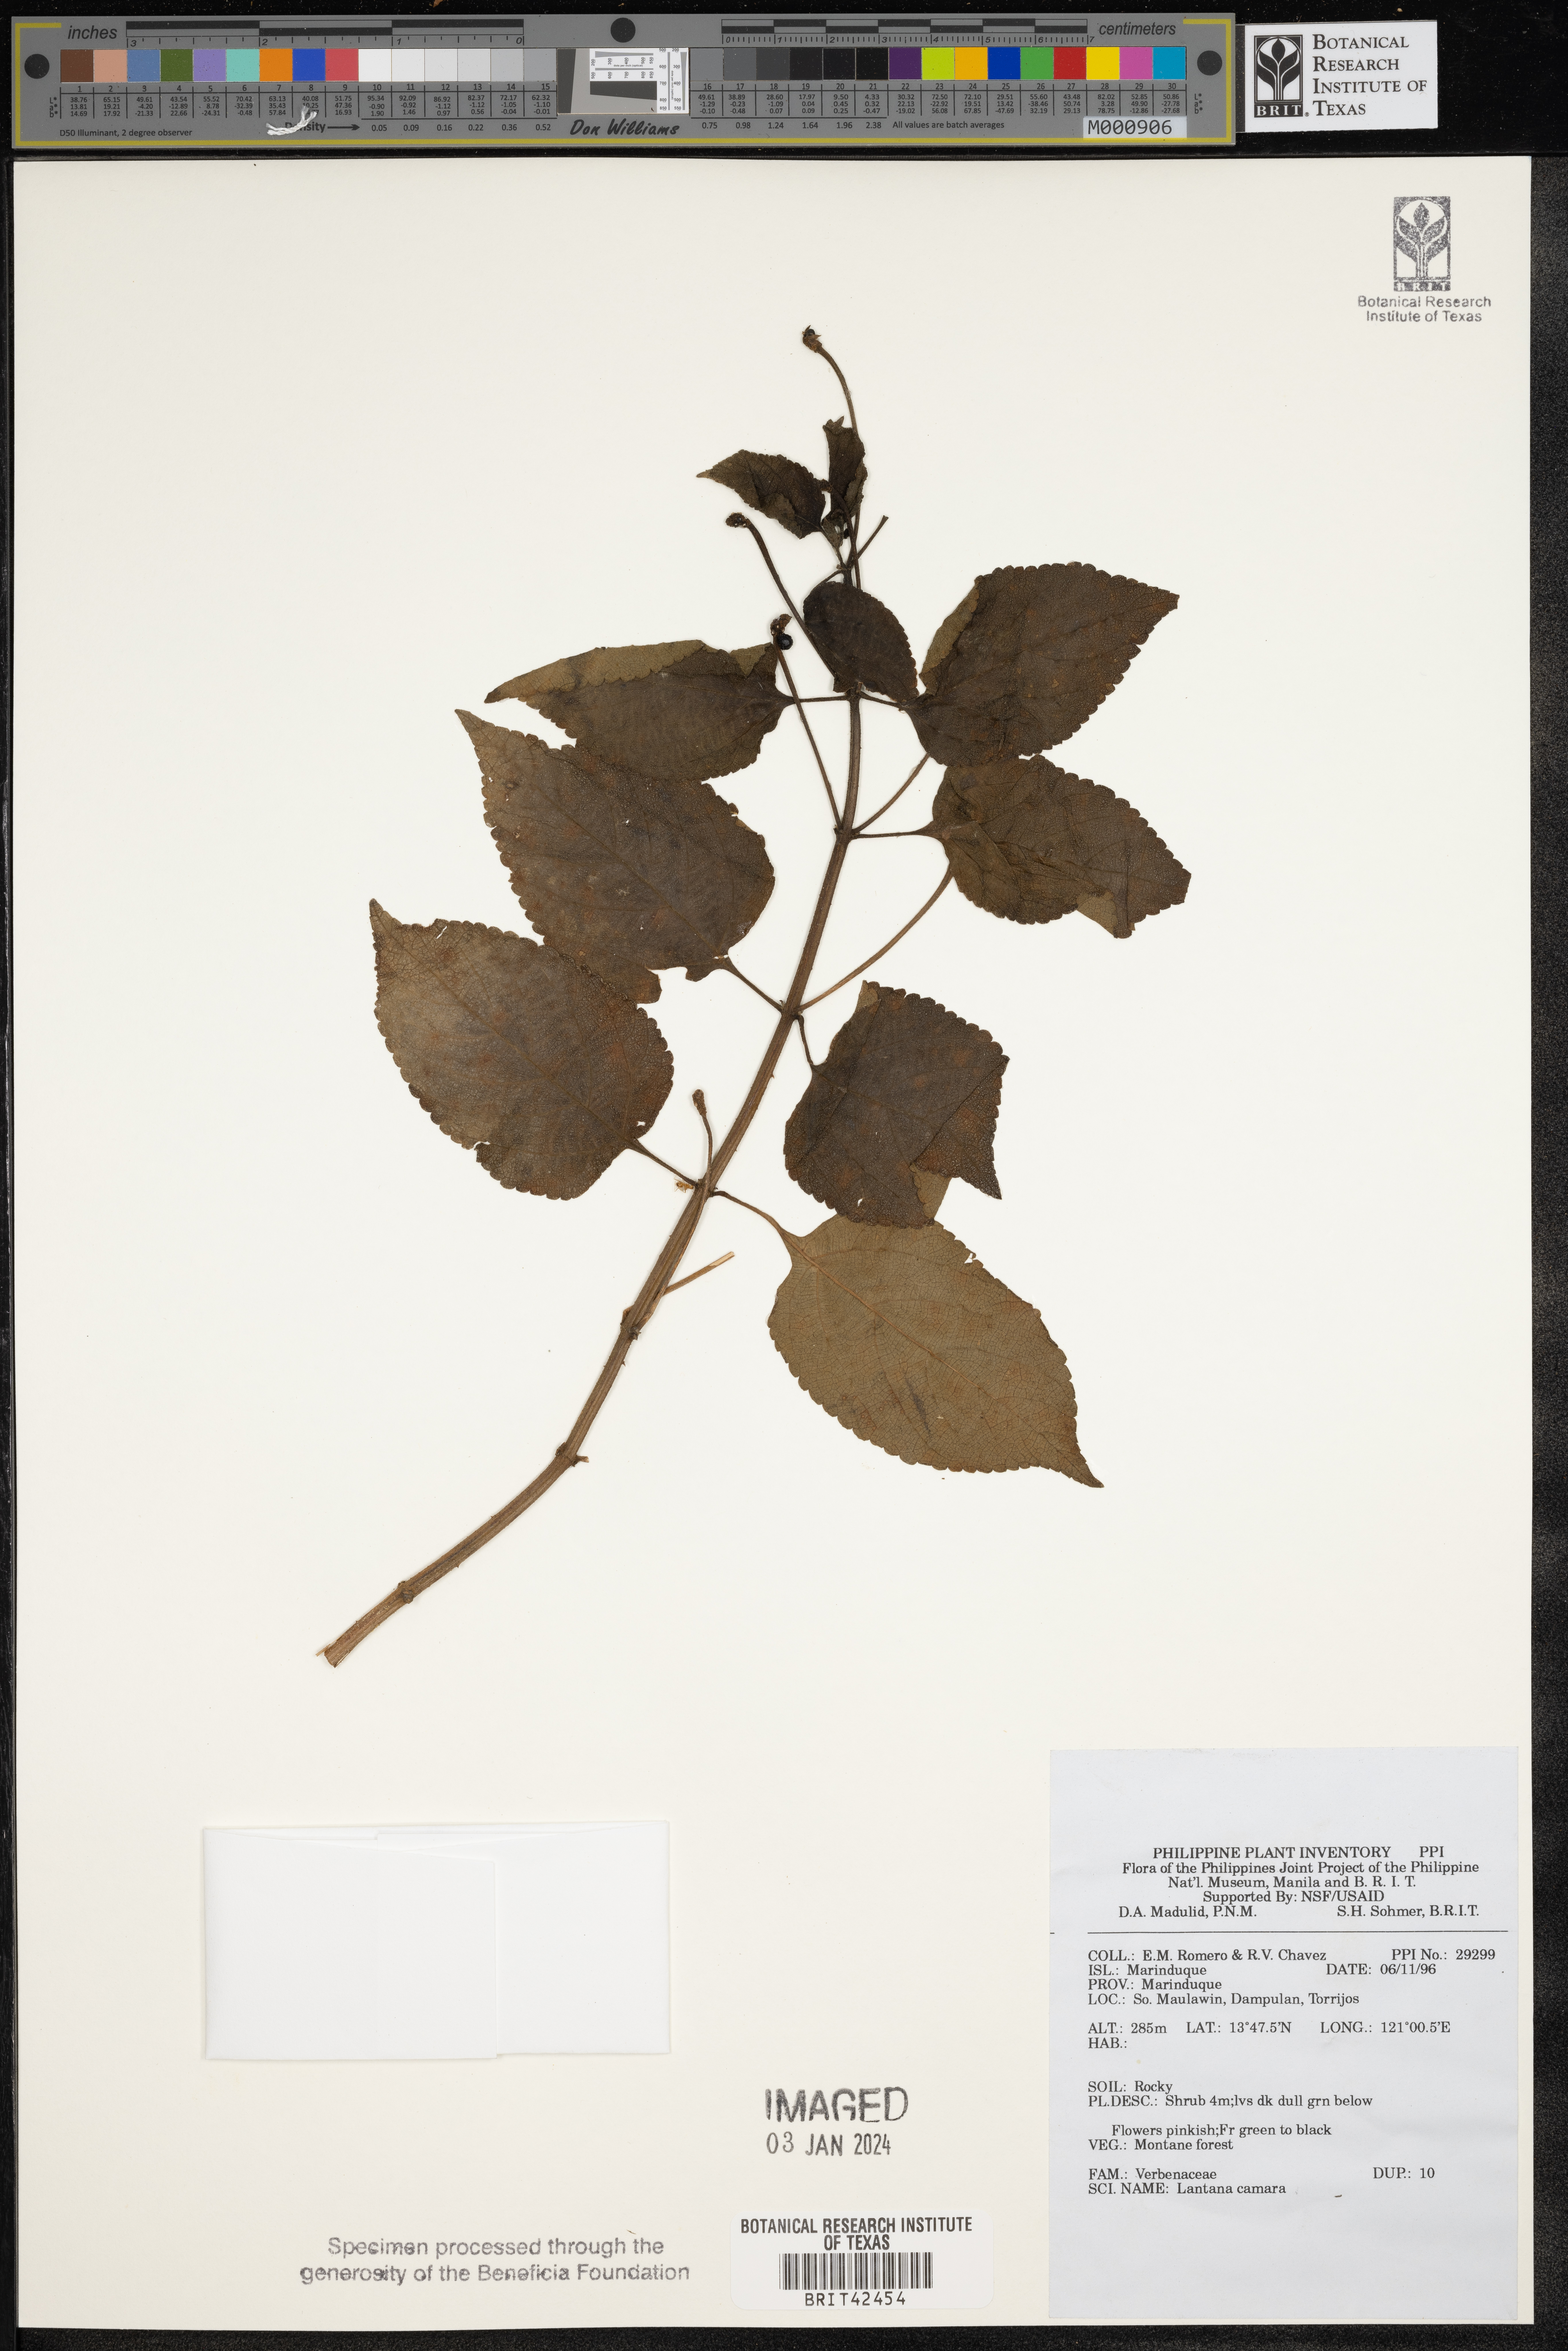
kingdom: Plantae
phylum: Tracheophyta
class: Magnoliopsida
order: Lamiales
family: Verbenaceae
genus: Lantana
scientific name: Lantana camara
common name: Lantana
